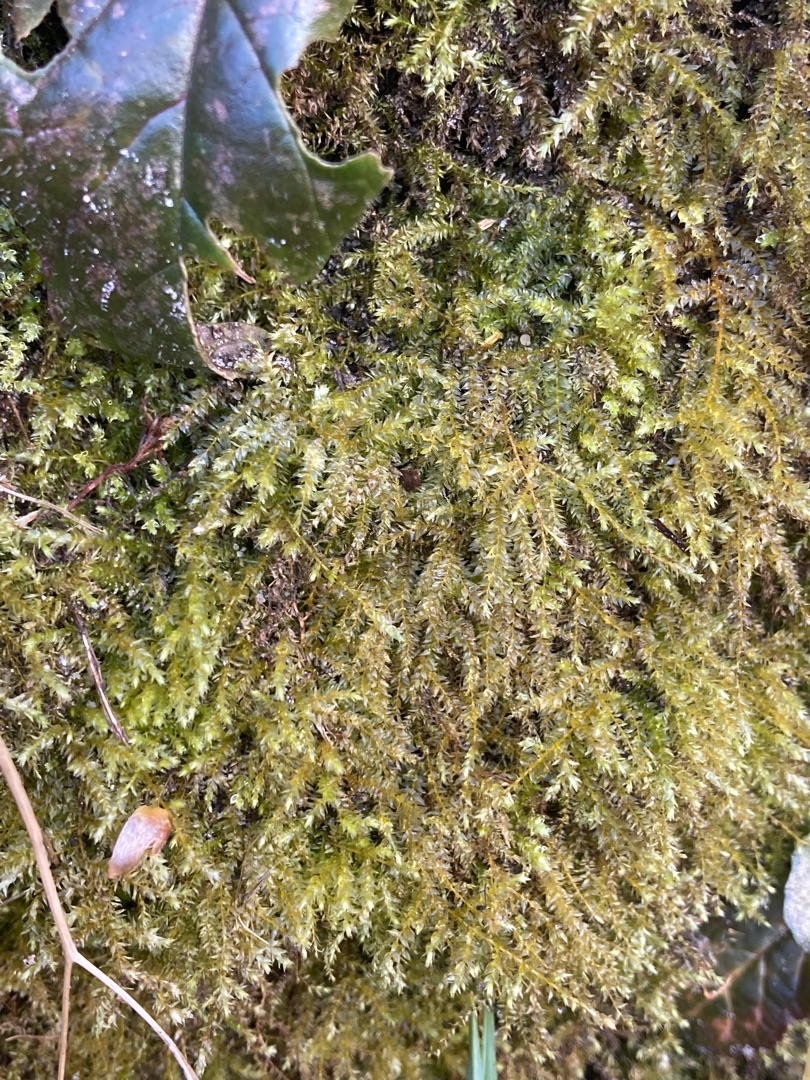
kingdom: Plantae
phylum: Bryophyta
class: Bryopsida
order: Hypnales
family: Brachytheciaceae
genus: Oxyrrhynchium
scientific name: Oxyrrhynchium hians
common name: Ler-vortetand
